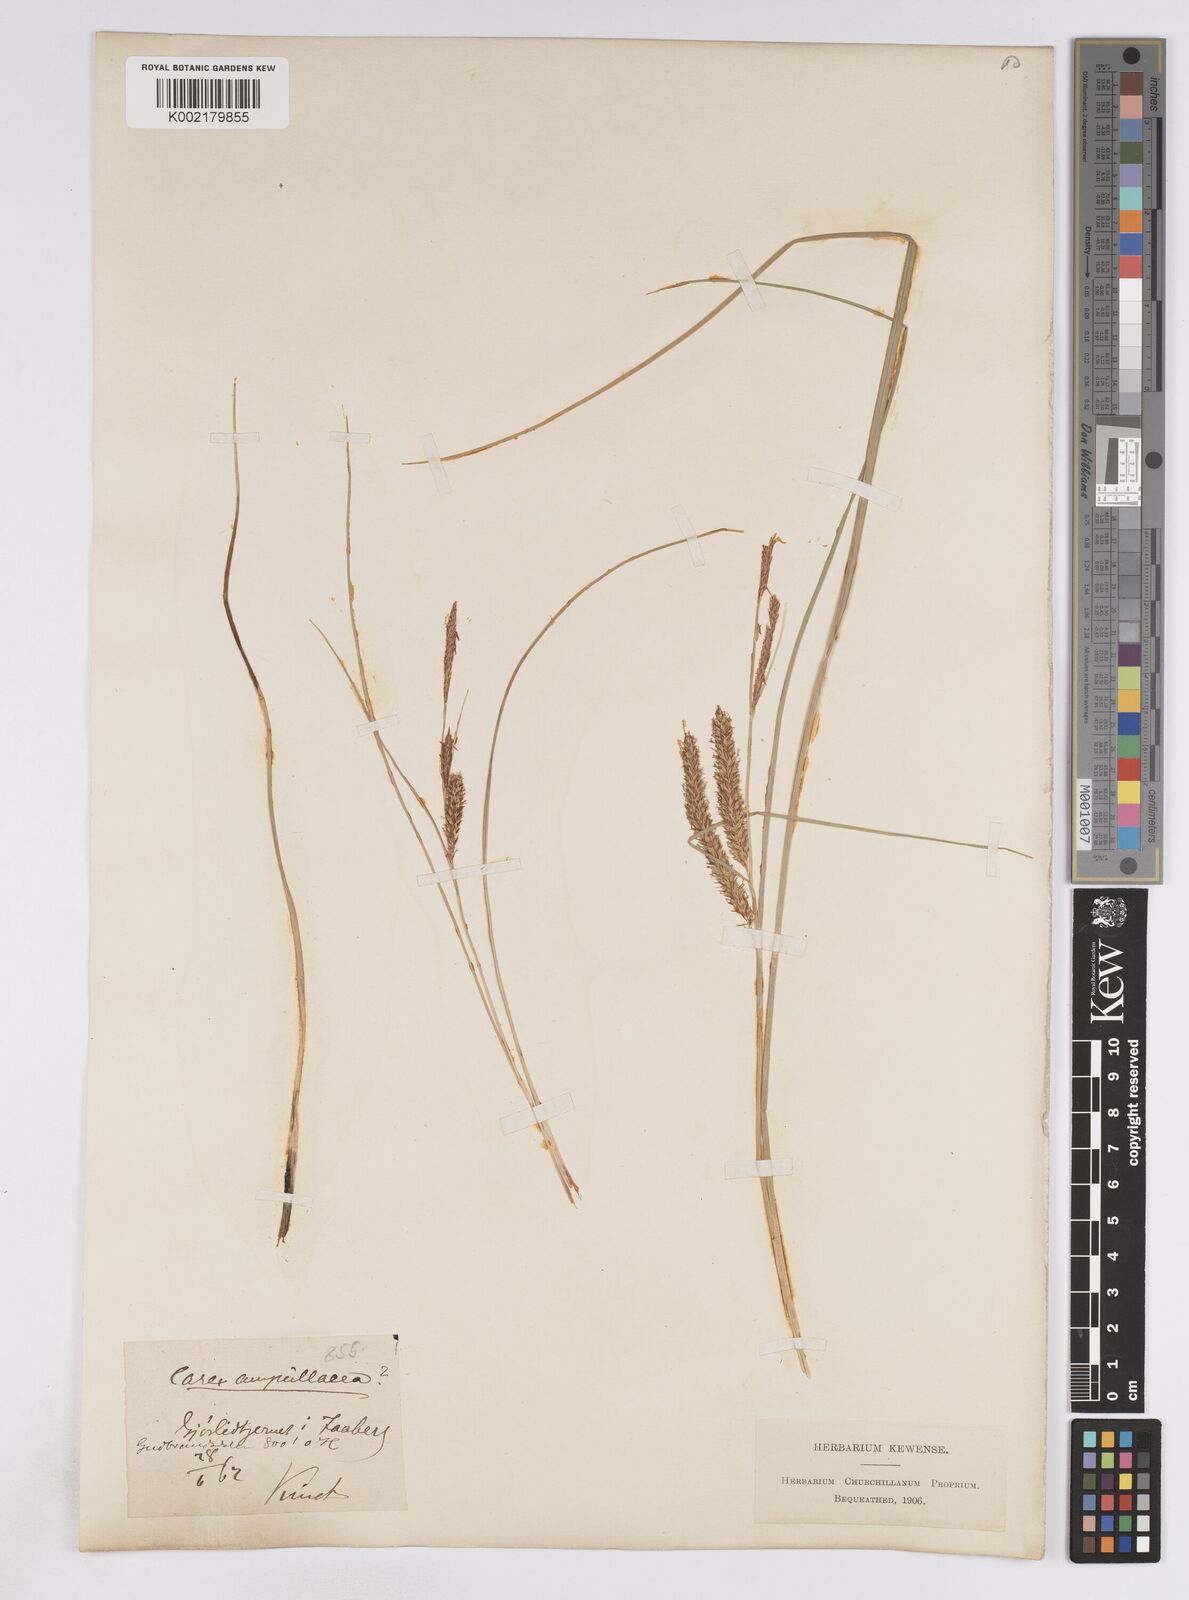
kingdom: Plantae
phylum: Tracheophyta
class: Liliopsida
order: Poales
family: Cyperaceae
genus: Carex
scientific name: Carex rostrata
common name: Bottle sedge
